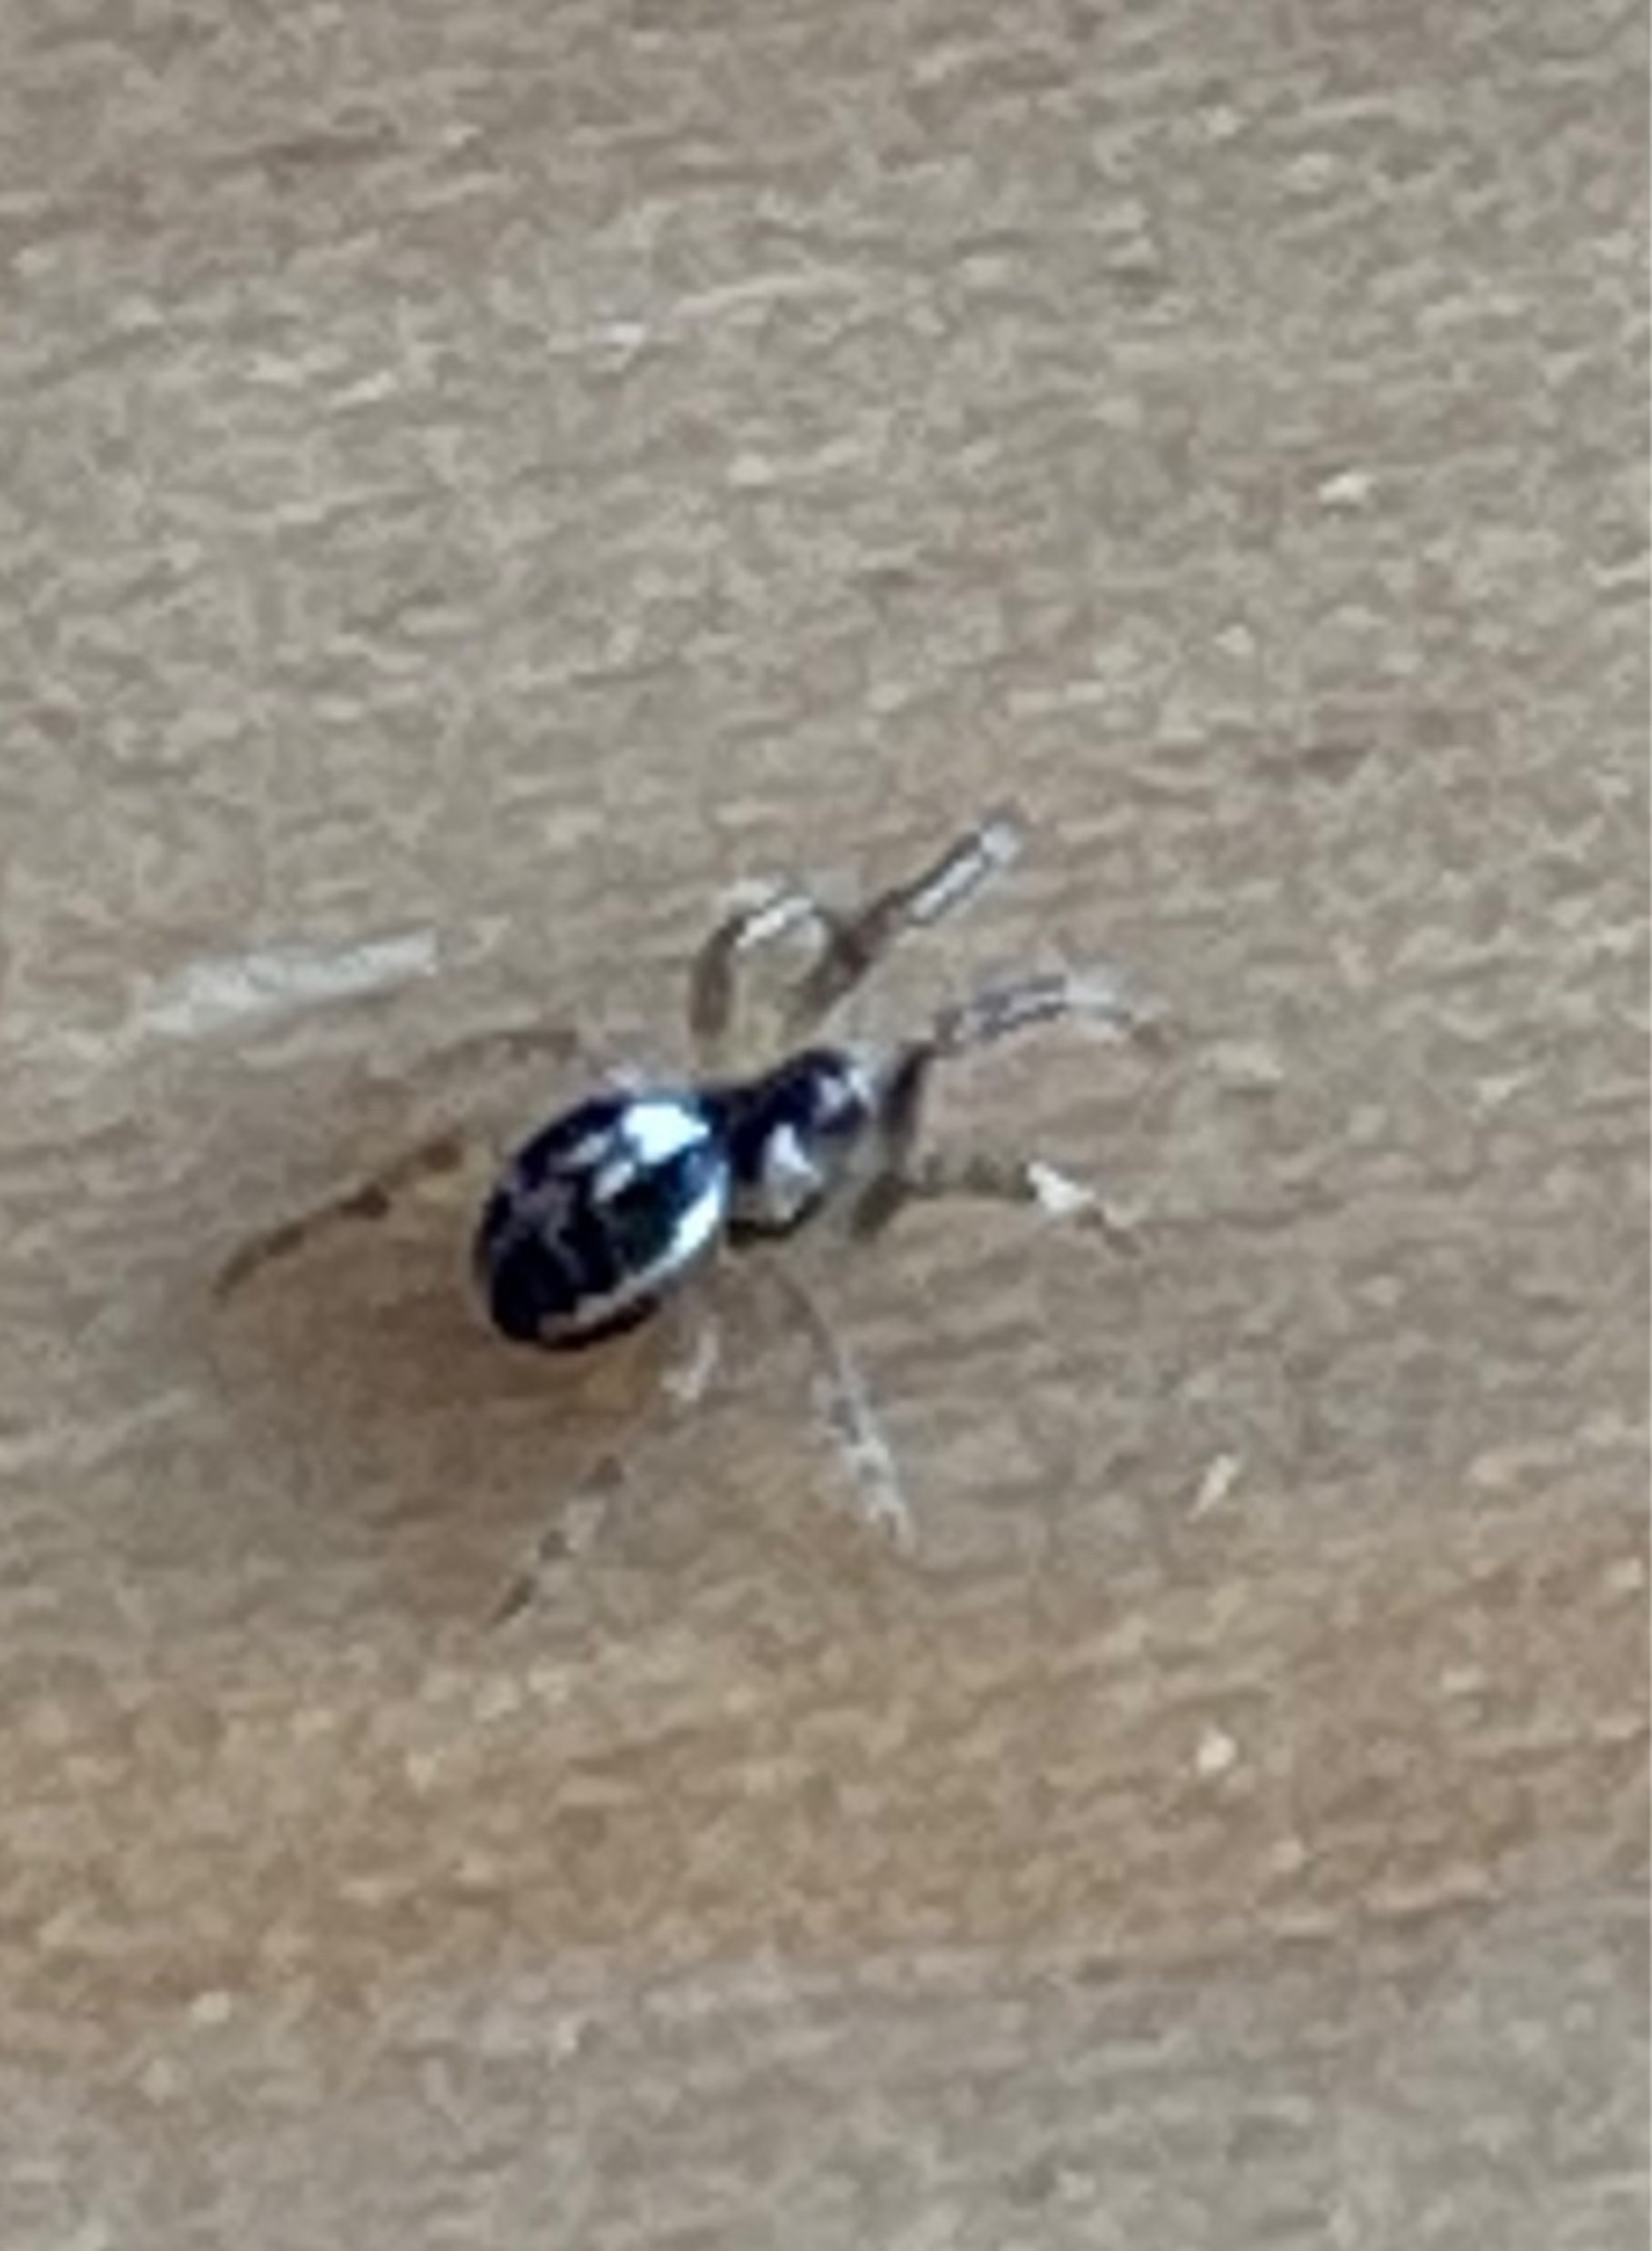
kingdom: Animalia
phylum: Arthropoda
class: Arachnida
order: Araneae
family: Araneidae
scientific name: Araneidae
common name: Hjulspindere
